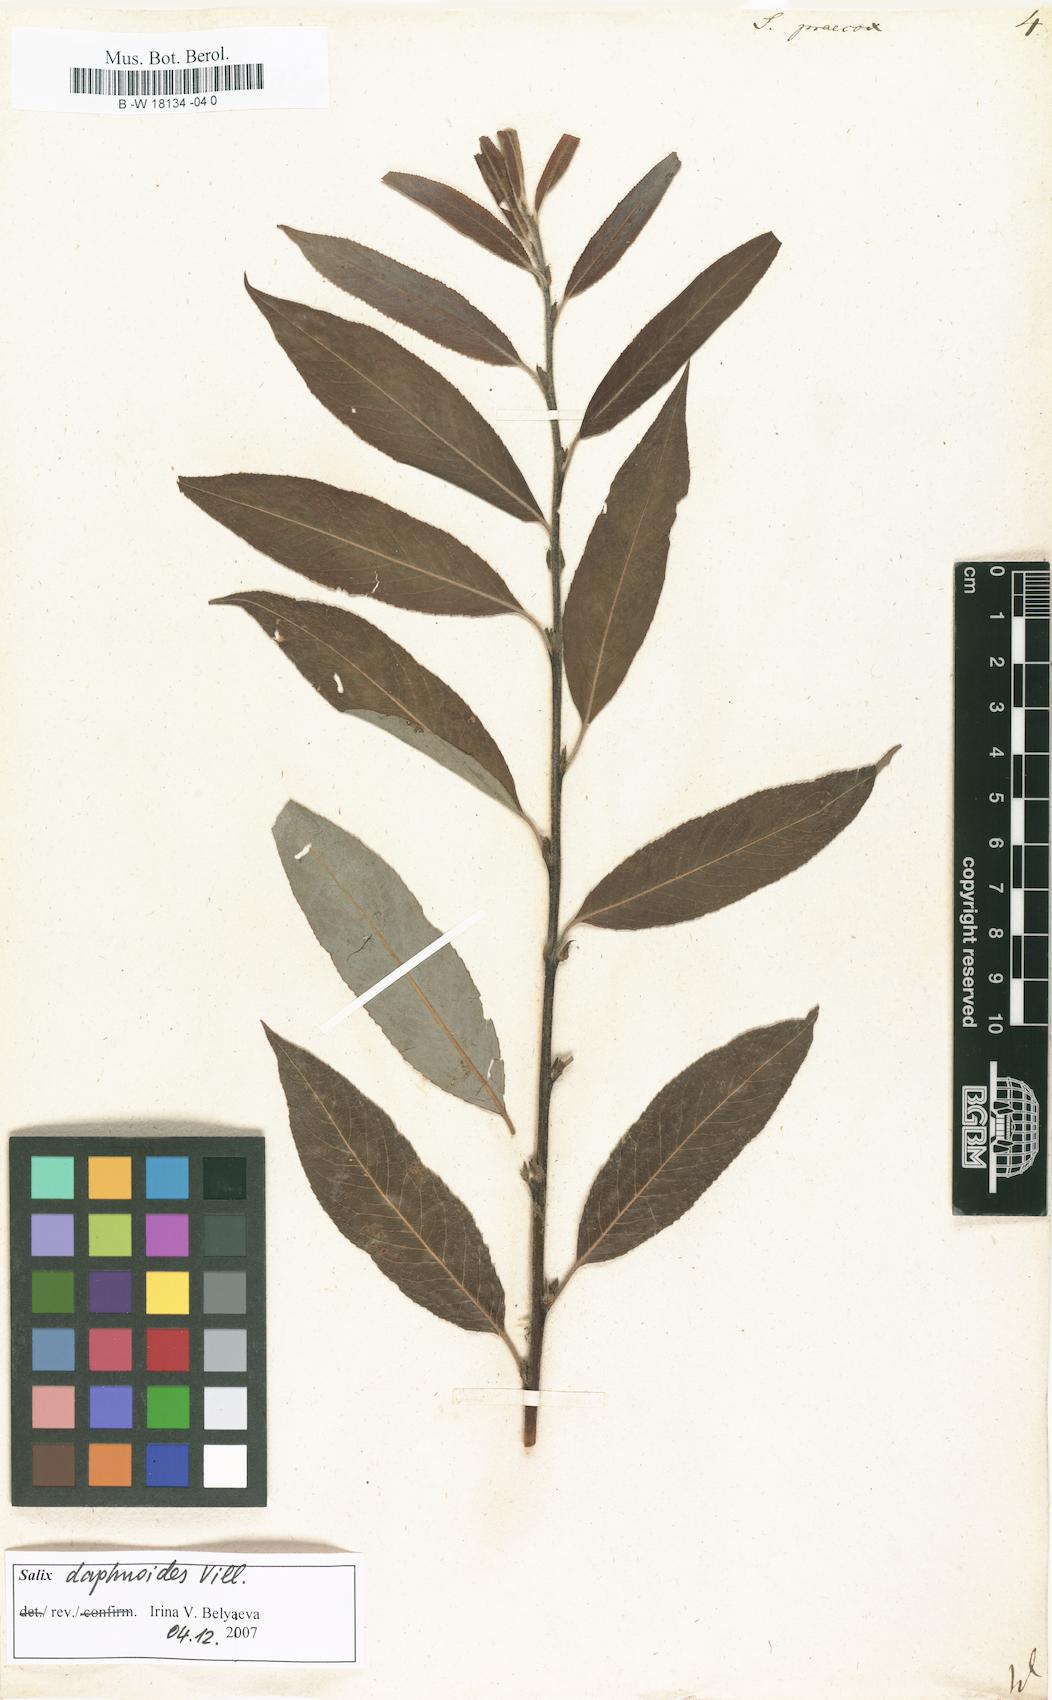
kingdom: Plantae
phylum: Tracheophyta
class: Magnoliopsida
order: Malpighiales
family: Salicaceae
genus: Salix
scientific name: Salix caprea
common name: Goat willow
